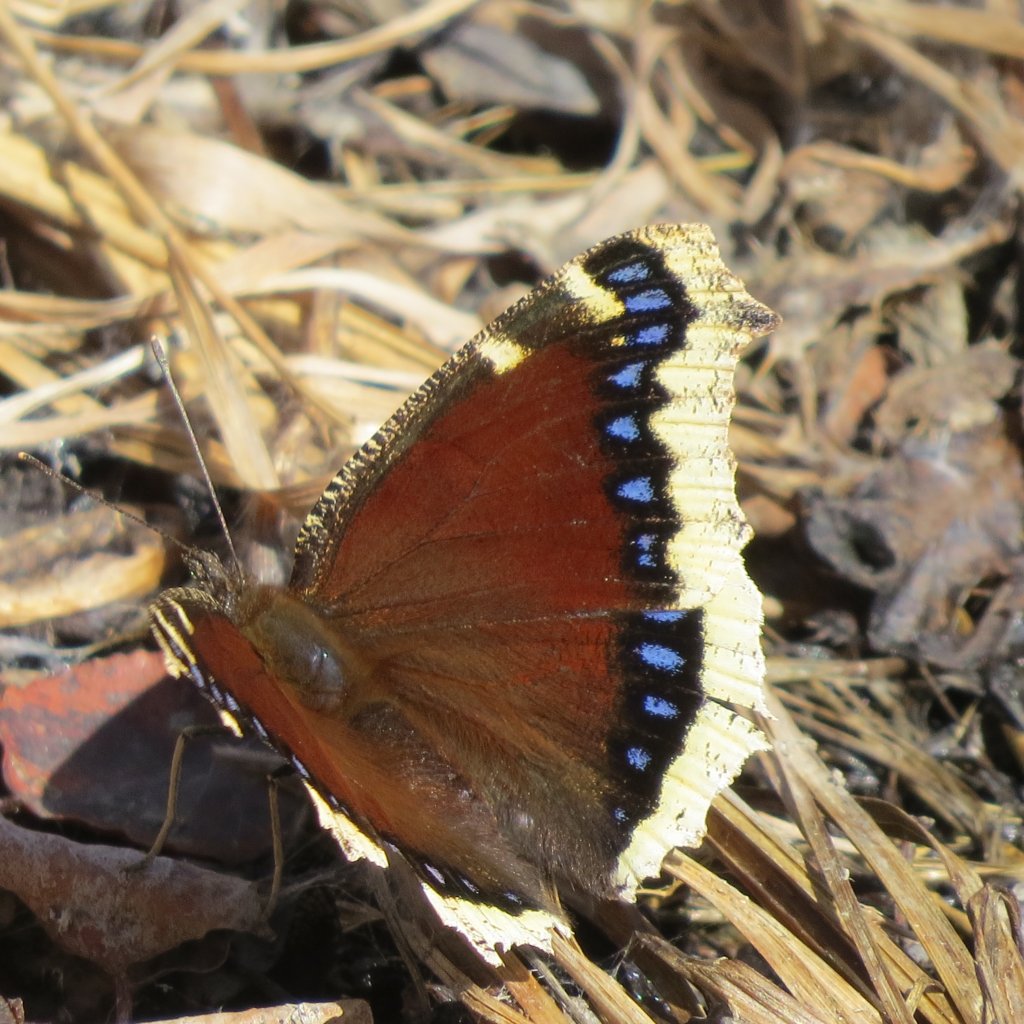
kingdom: Animalia
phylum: Arthropoda
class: Insecta
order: Lepidoptera
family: Nymphalidae
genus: Nymphalis
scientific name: Nymphalis antiopa
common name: Mourning Cloak
